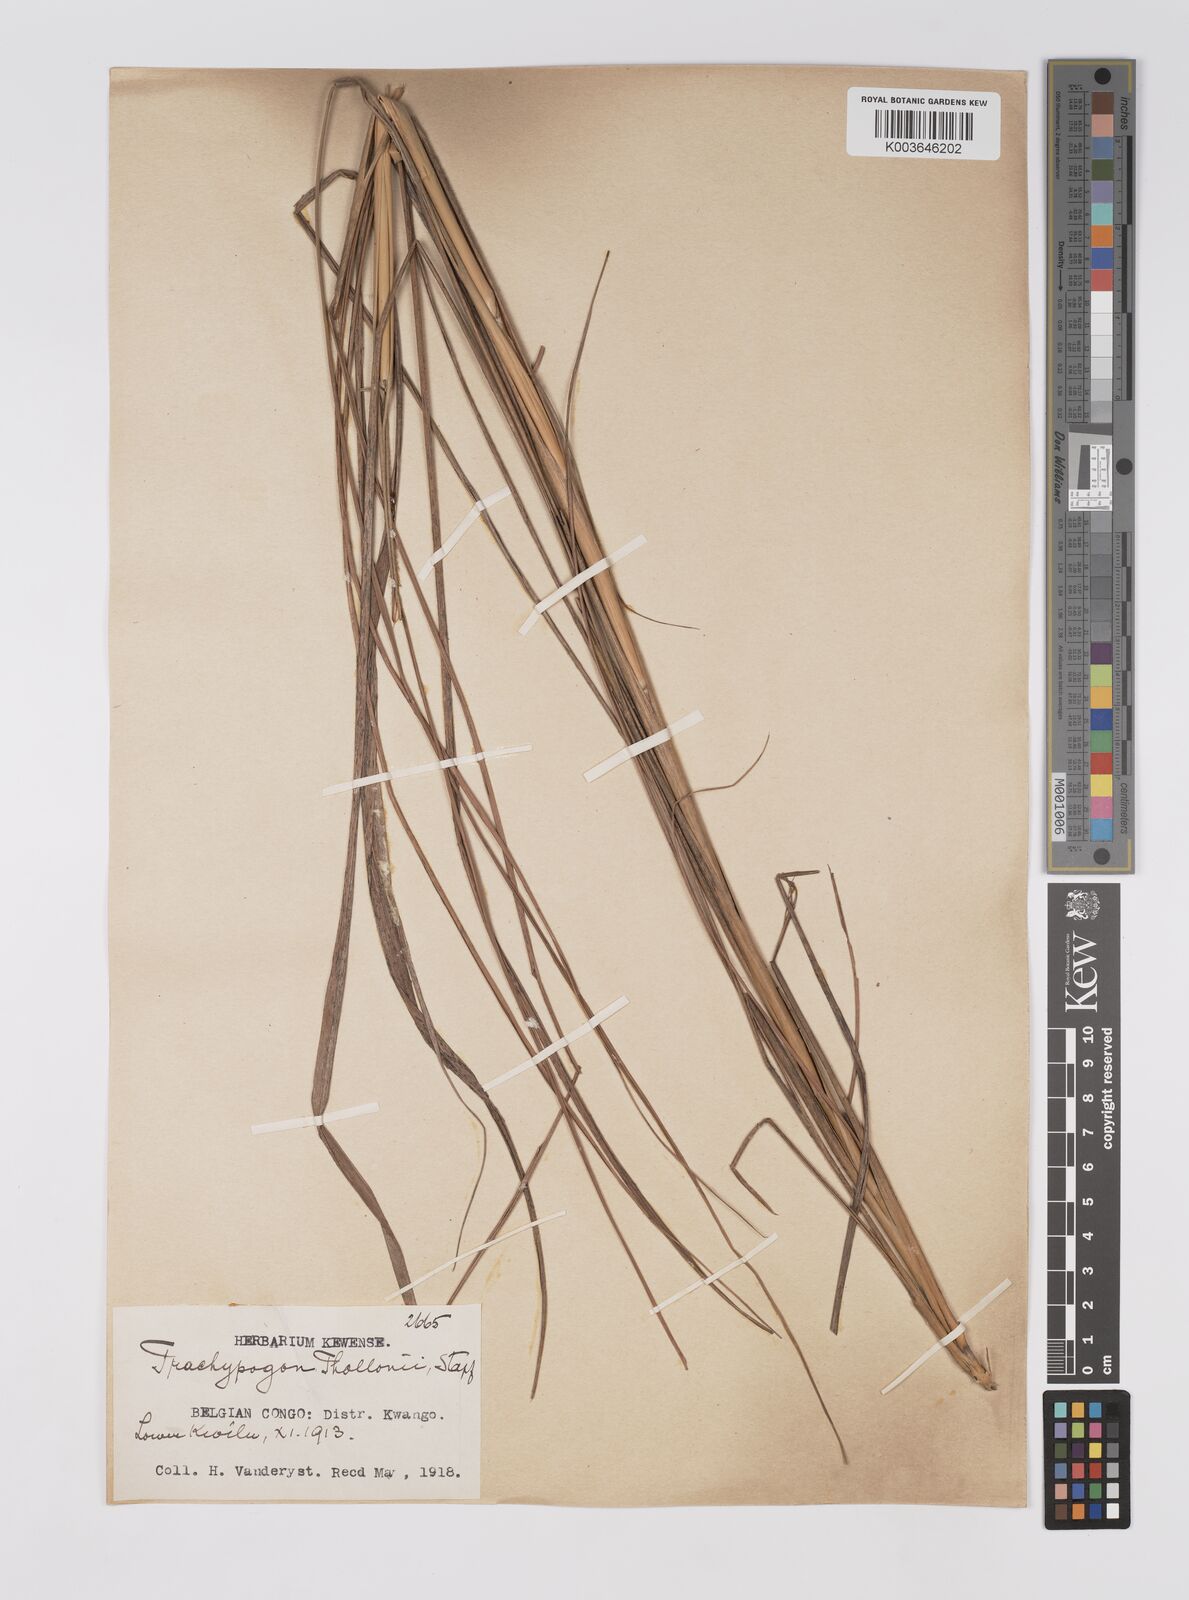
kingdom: Plantae
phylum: Tracheophyta
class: Liliopsida
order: Poales
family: Poaceae
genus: Trachypogon
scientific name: Trachypogon spicatus
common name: Crinkle-awn
